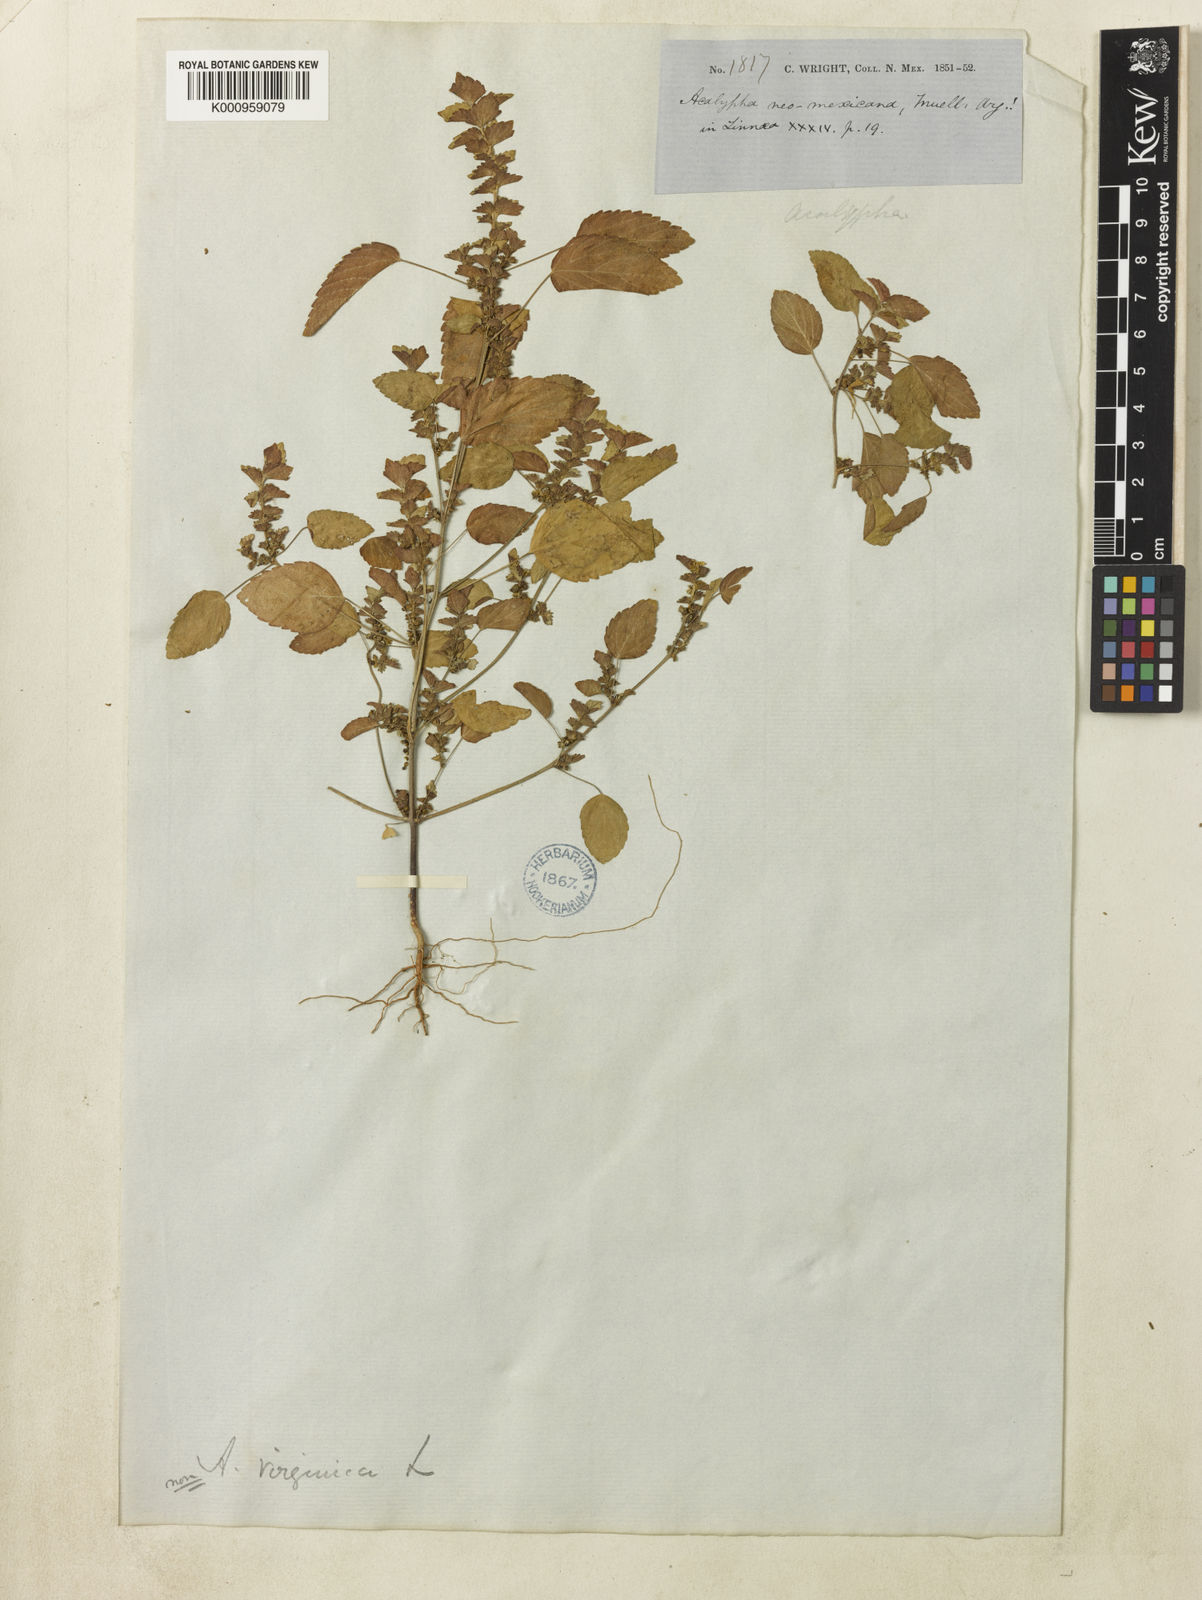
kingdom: Plantae
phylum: Tracheophyta
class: Magnoliopsida
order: Malpighiales
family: Euphorbiaceae
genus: Acalypha
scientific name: Acalypha
